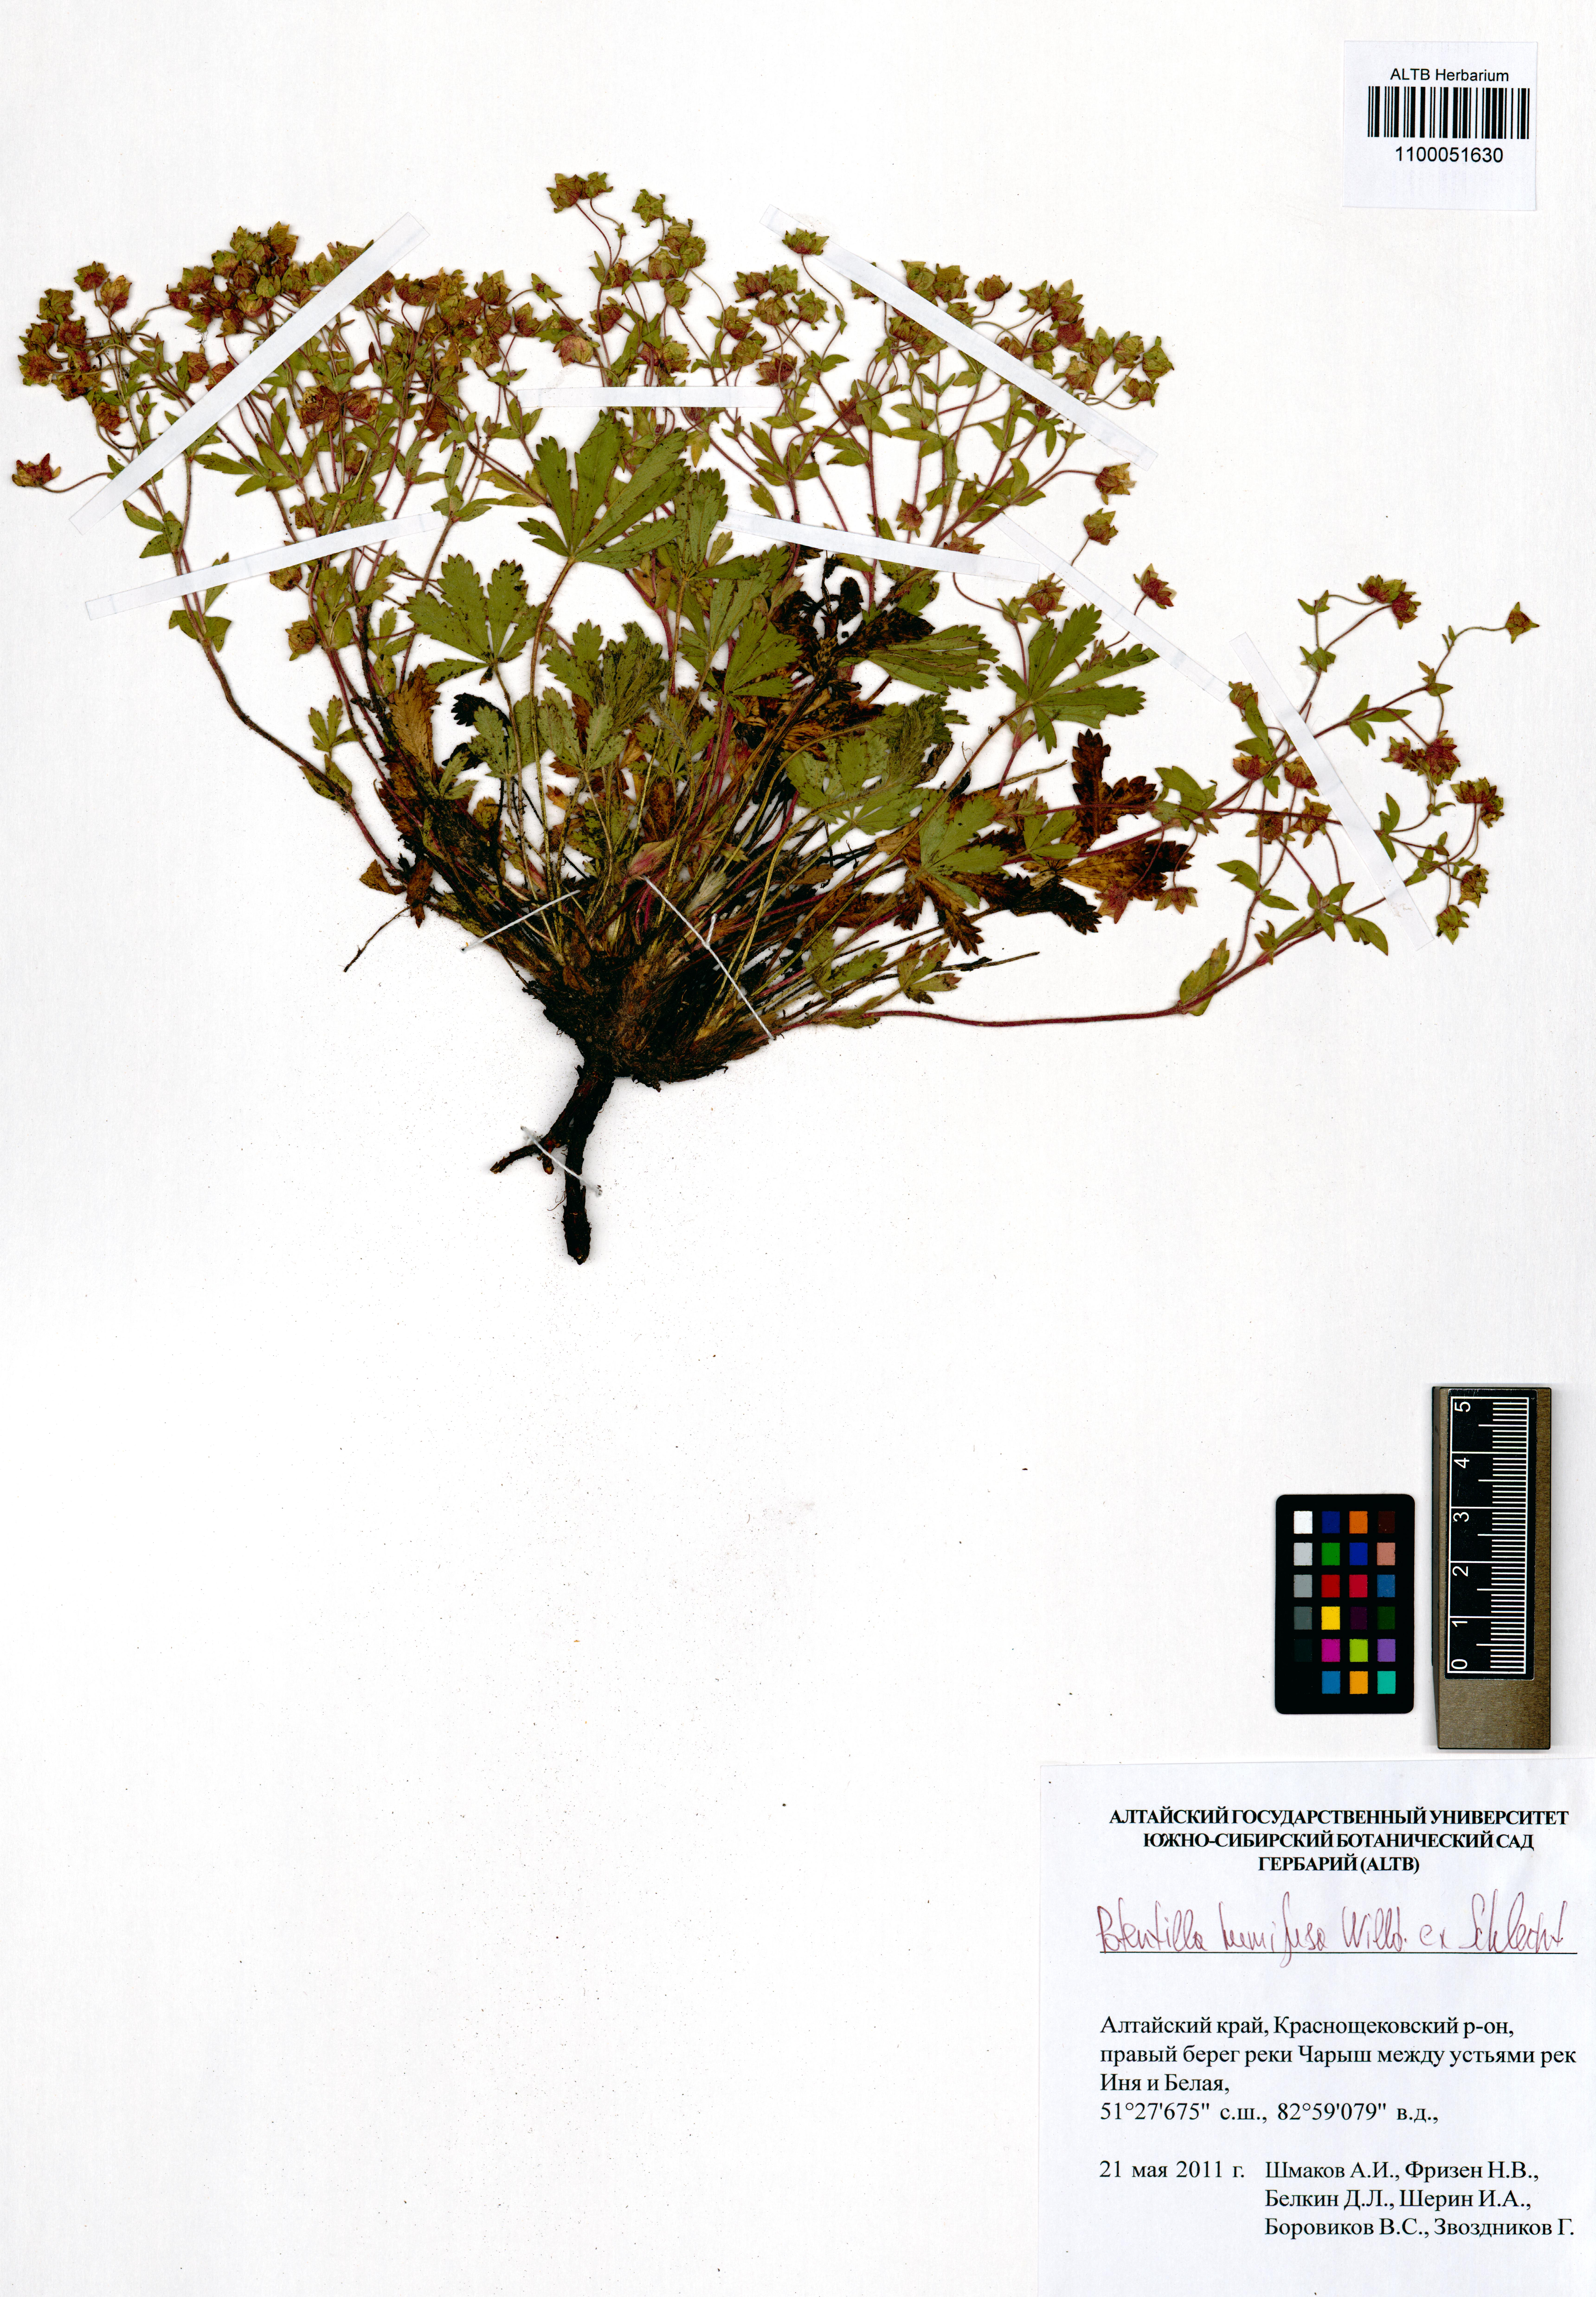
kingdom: Plantae
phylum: Tracheophyta
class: Magnoliopsida
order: Rosales
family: Rosaceae
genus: Potentilla
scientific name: Potentilla humifusa
